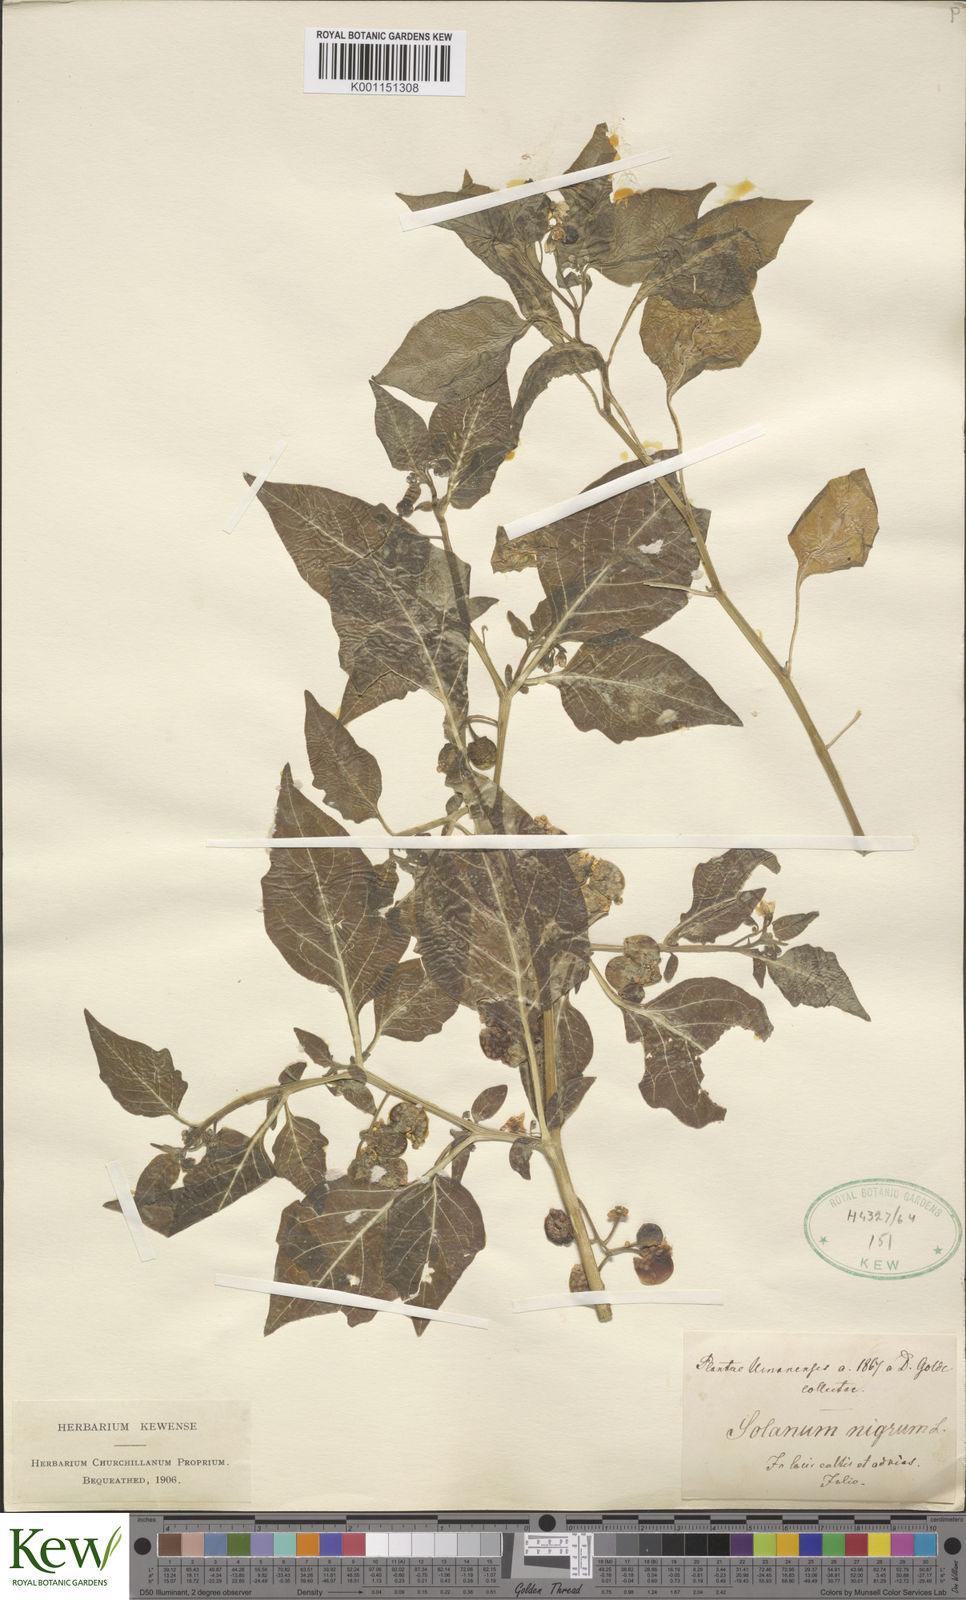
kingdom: Plantae
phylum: Tracheophyta
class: Magnoliopsida
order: Solanales
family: Solanaceae
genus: Solanum
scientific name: Solanum nigrum
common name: Black nightshade
